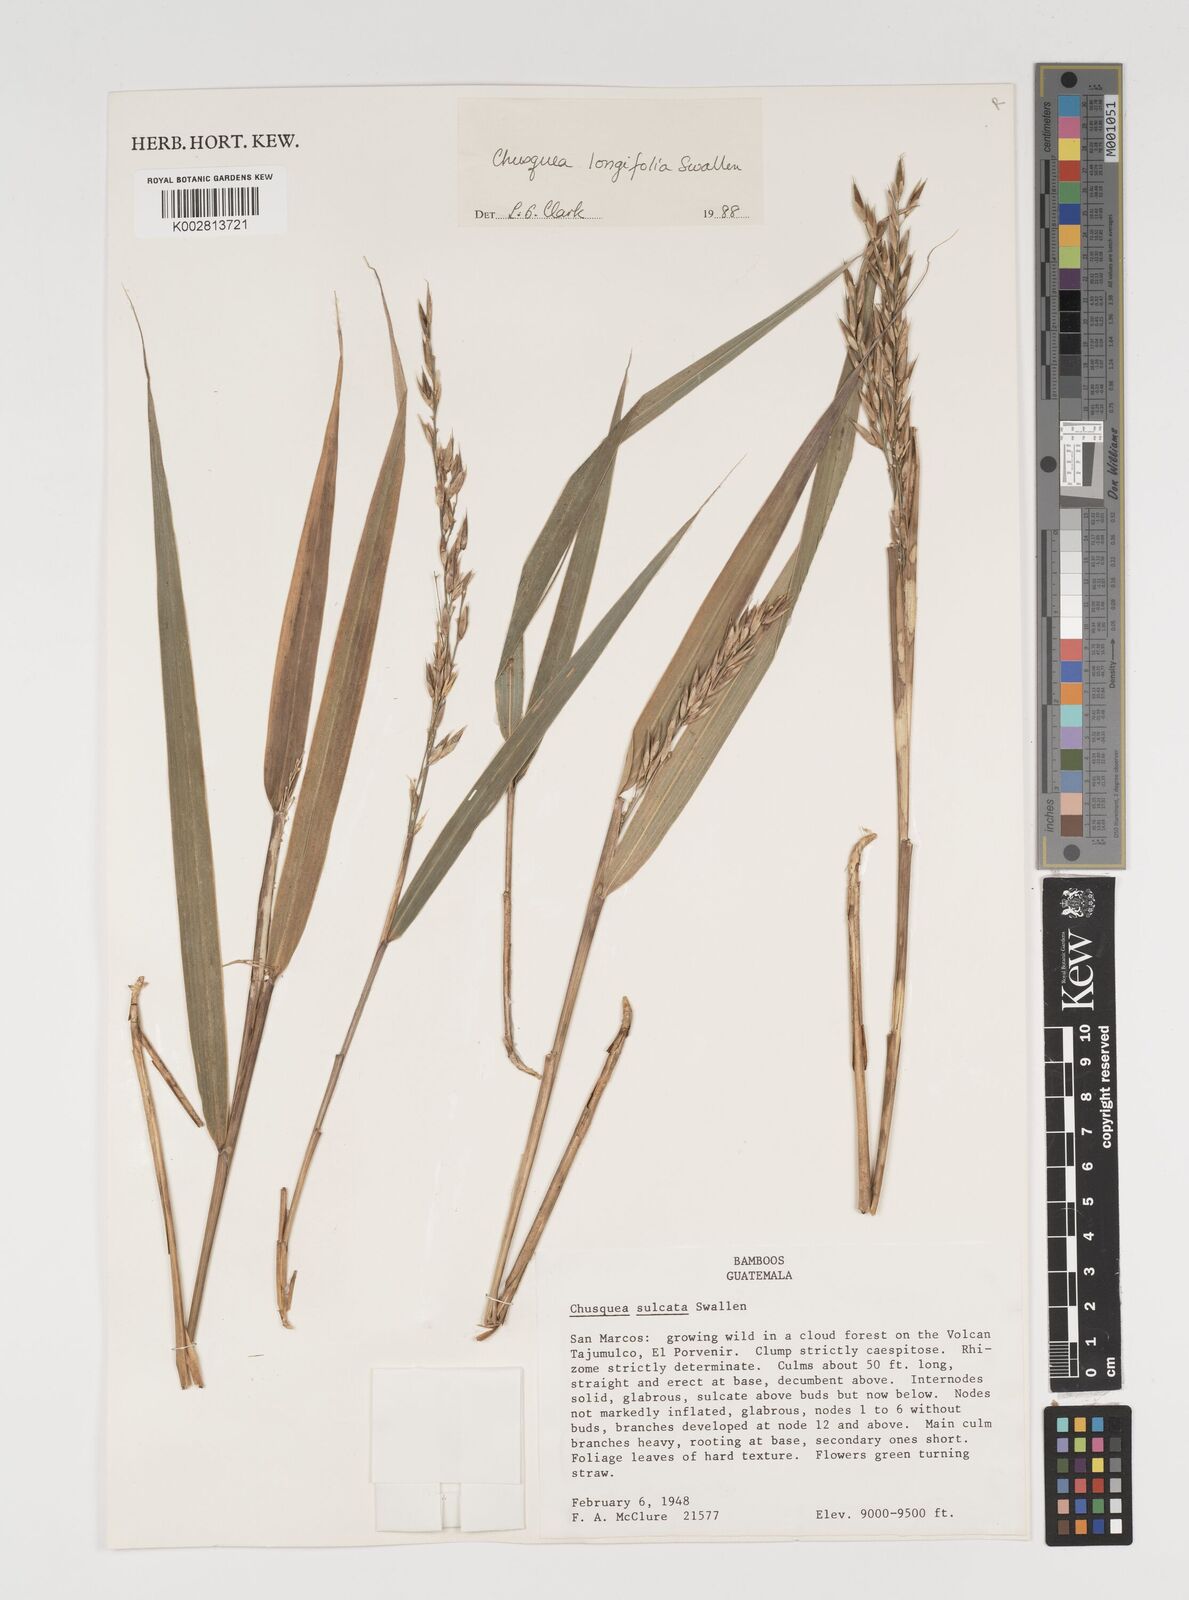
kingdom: Plantae
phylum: Tracheophyta
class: Liliopsida
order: Poales
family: Poaceae
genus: Chusquea
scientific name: Chusquea longifolia
